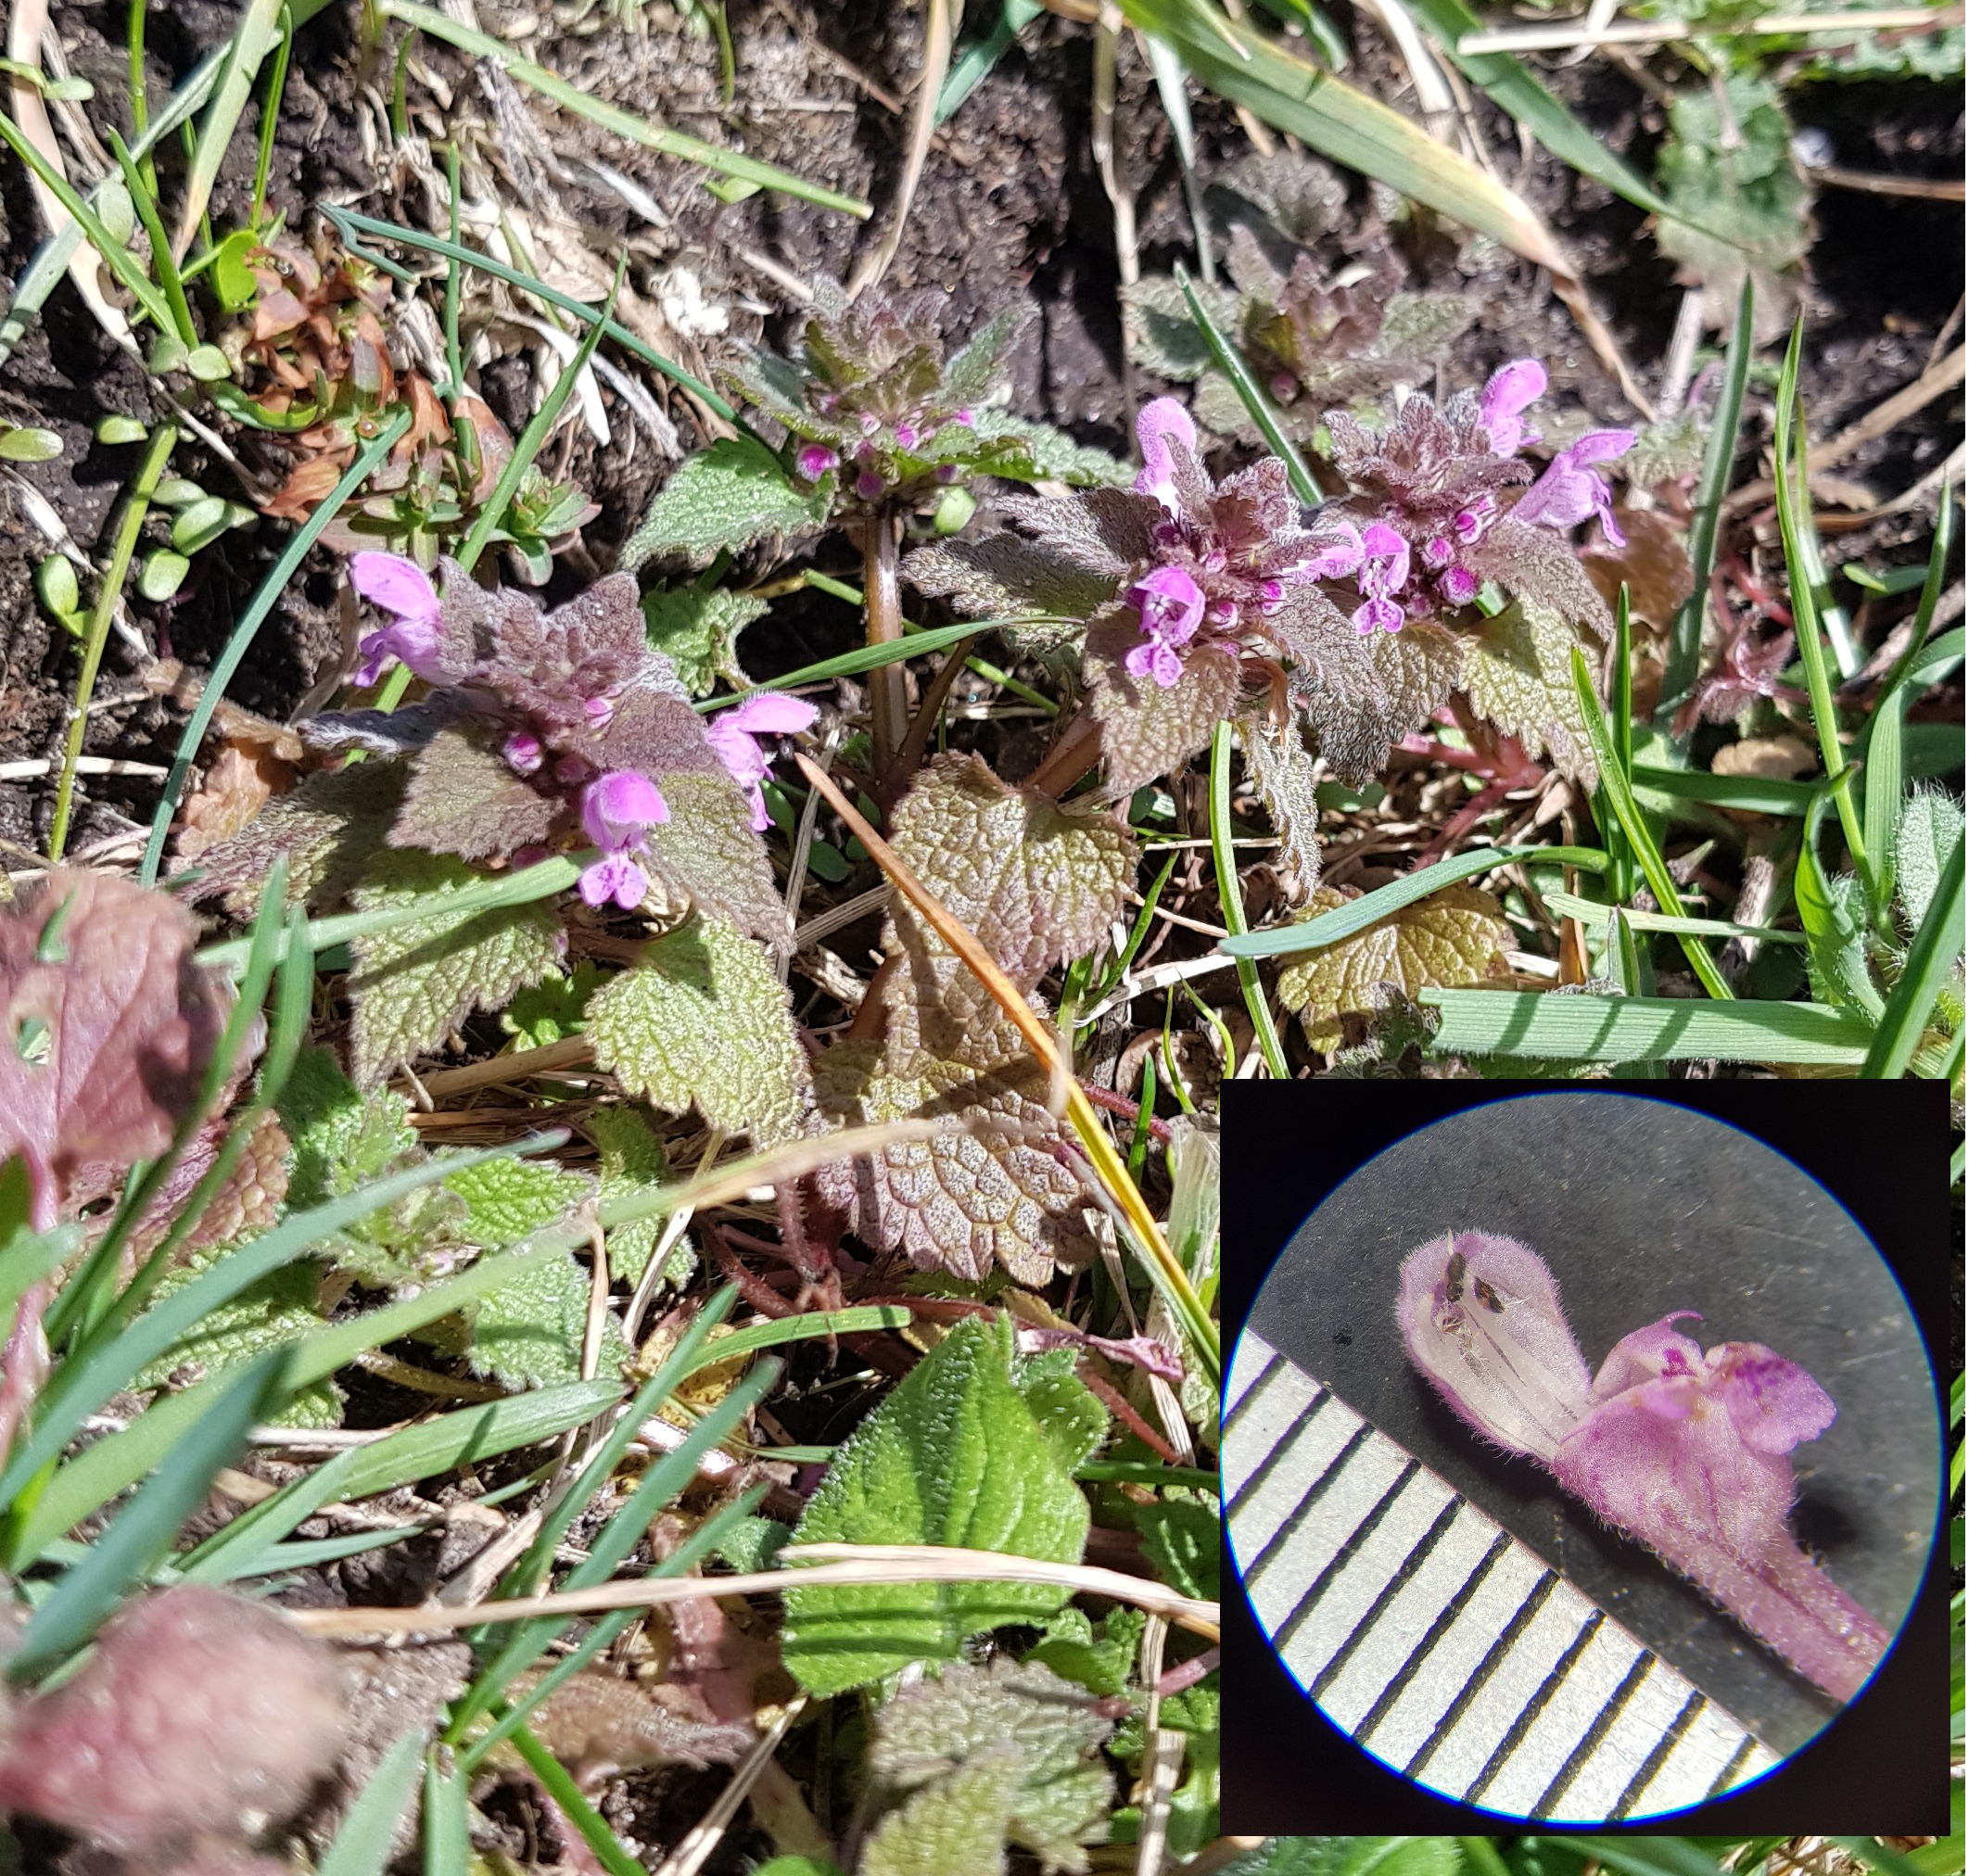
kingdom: Plantae
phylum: Tracheophyta
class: Magnoliopsida
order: Lamiales
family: Lamiaceae
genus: Lamium
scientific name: Lamium purpureum
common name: Rød tvetand
